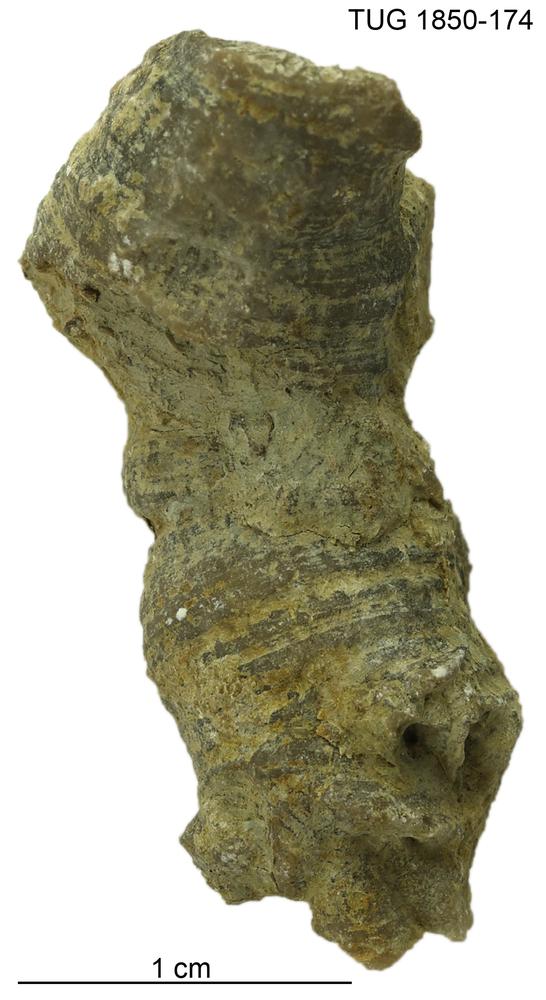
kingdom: Animalia
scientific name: Animalia
